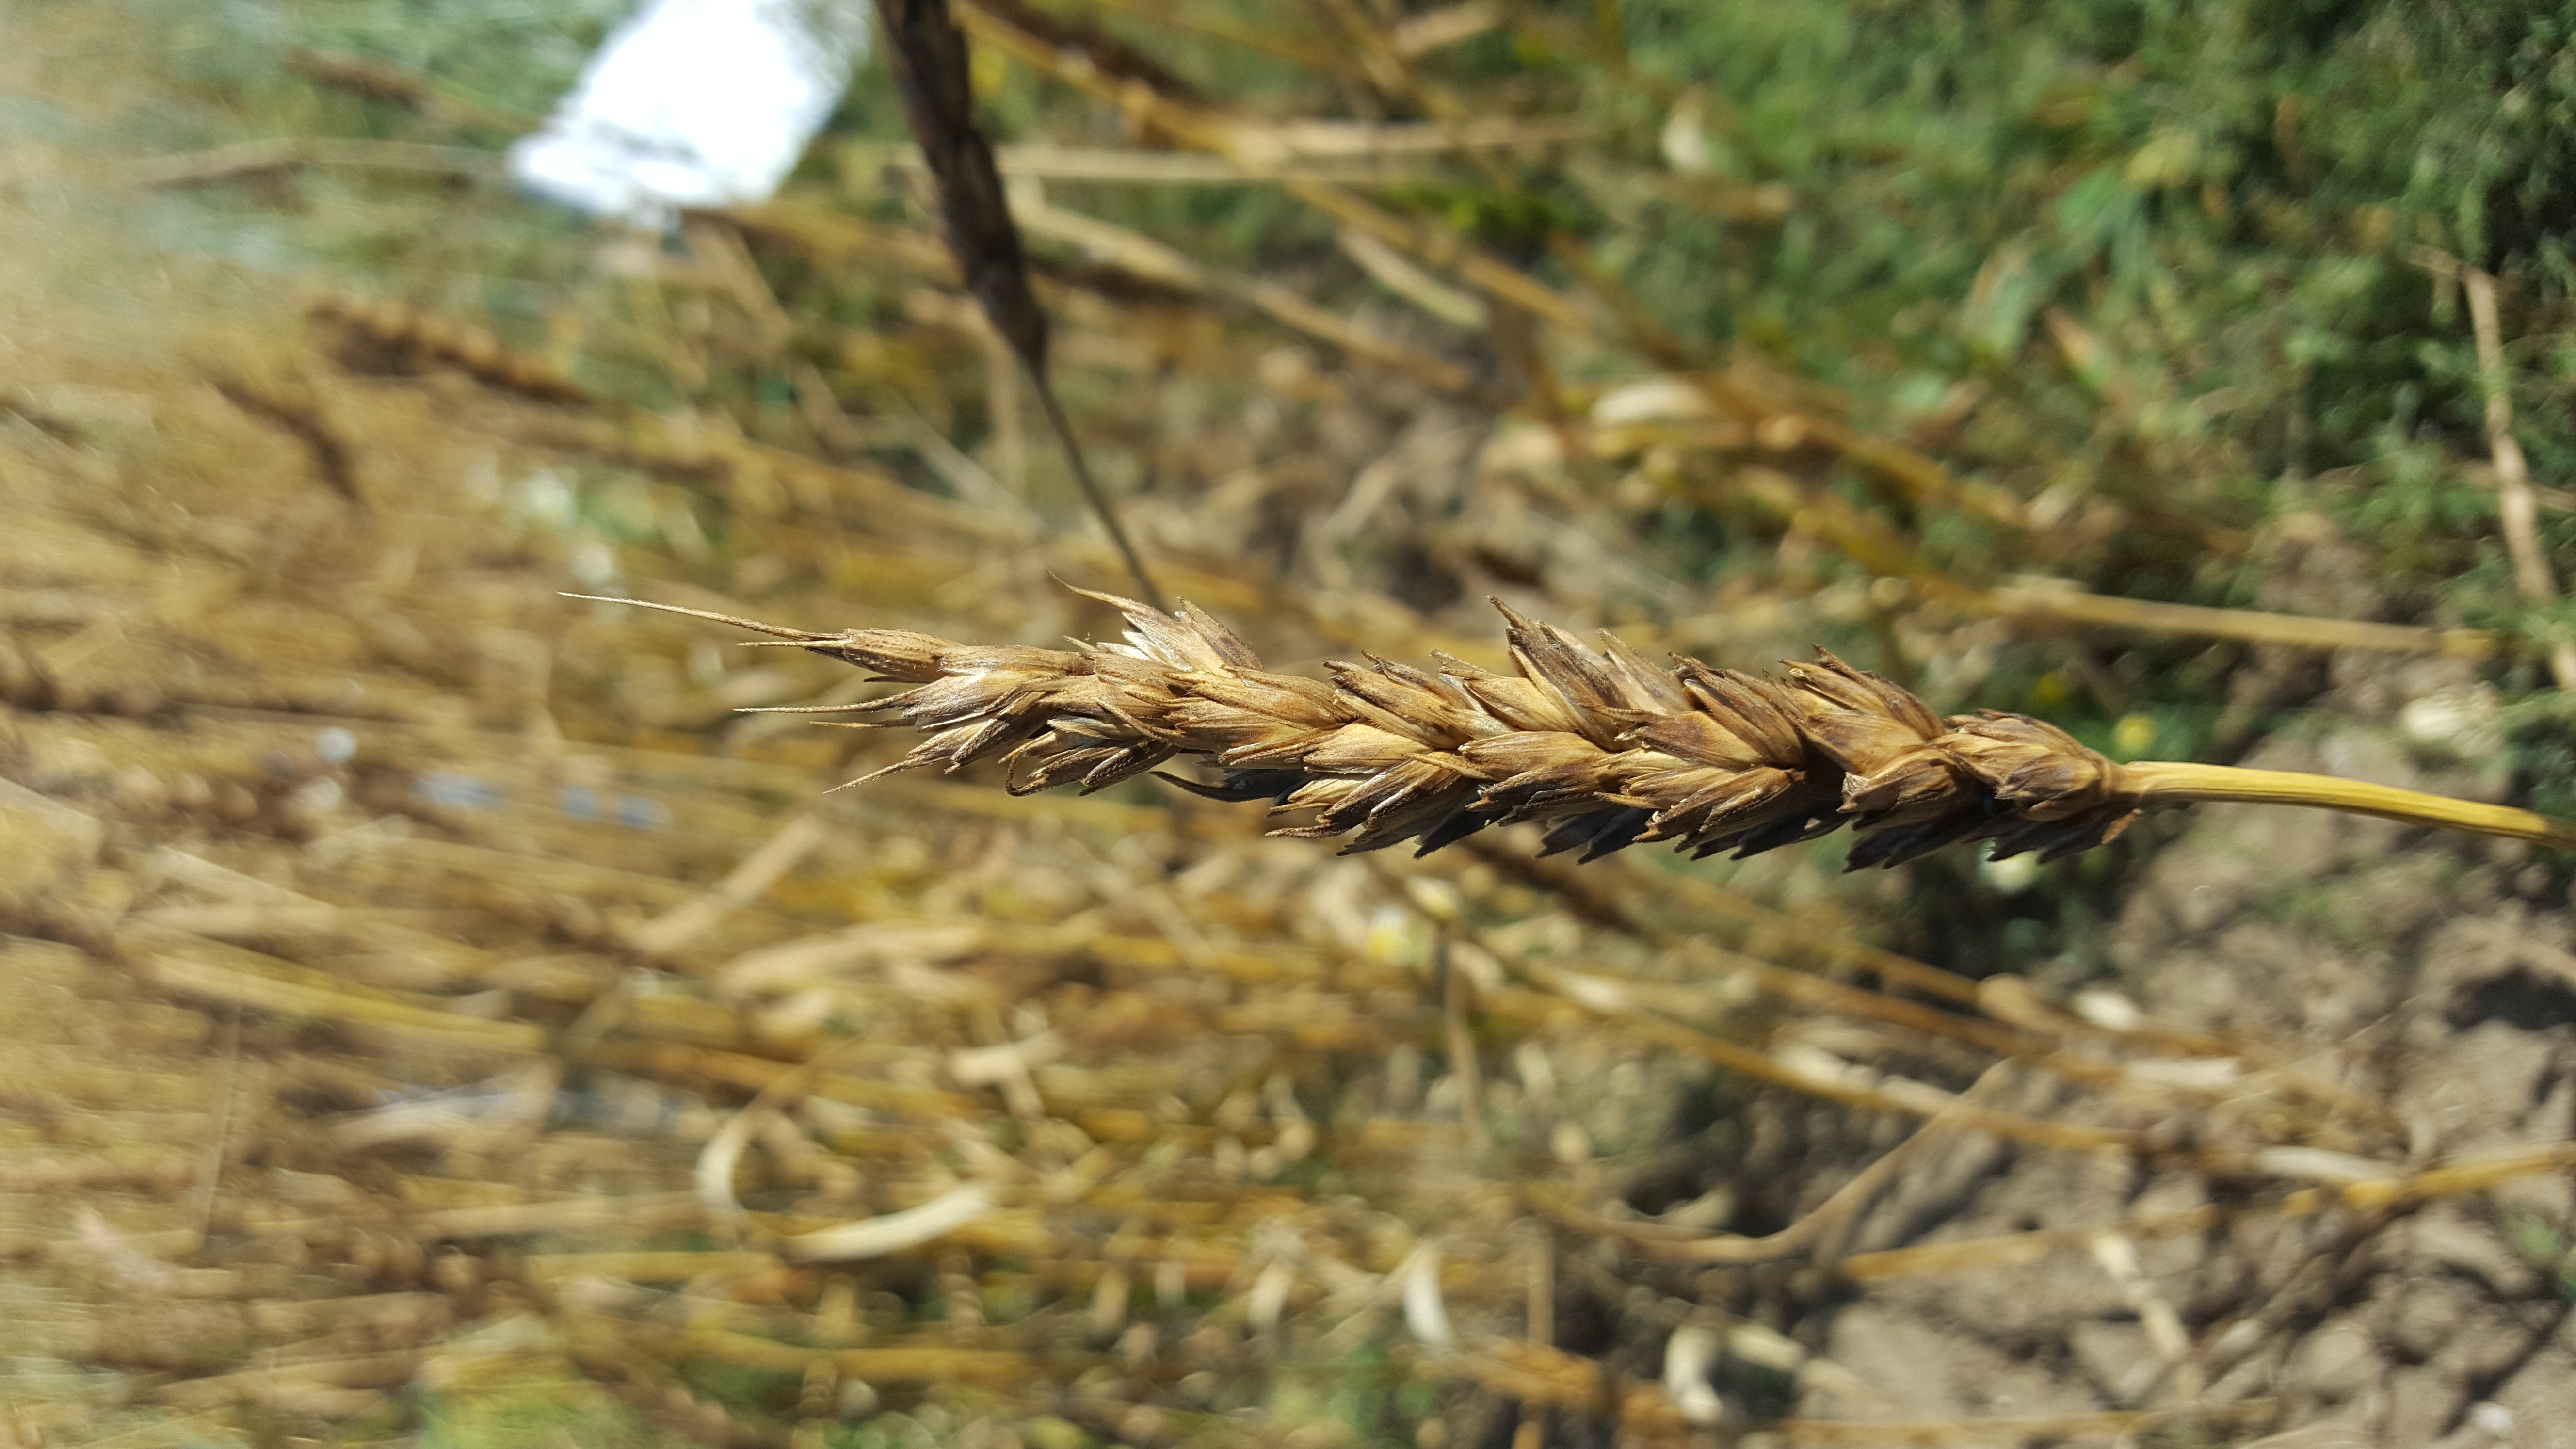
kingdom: Plantae
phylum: Tracheophyta
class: Liliopsida
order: Poales
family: Poaceae
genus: Triticum
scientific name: Triticum aestivum
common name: Common wheat
